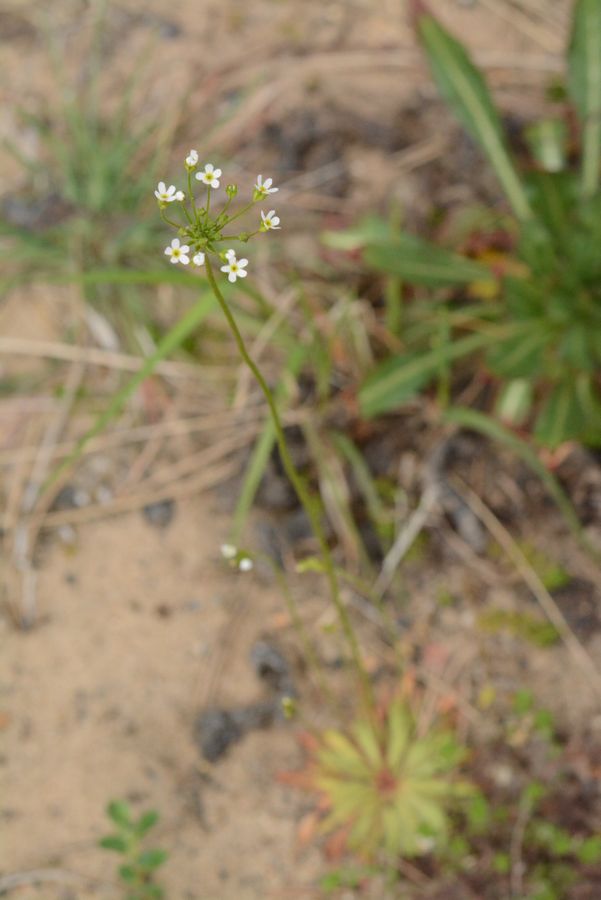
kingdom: Plantae
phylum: Tracheophyta
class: Magnoliopsida
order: Ericales
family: Primulaceae
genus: Androsace
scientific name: Androsace septentrionalis
